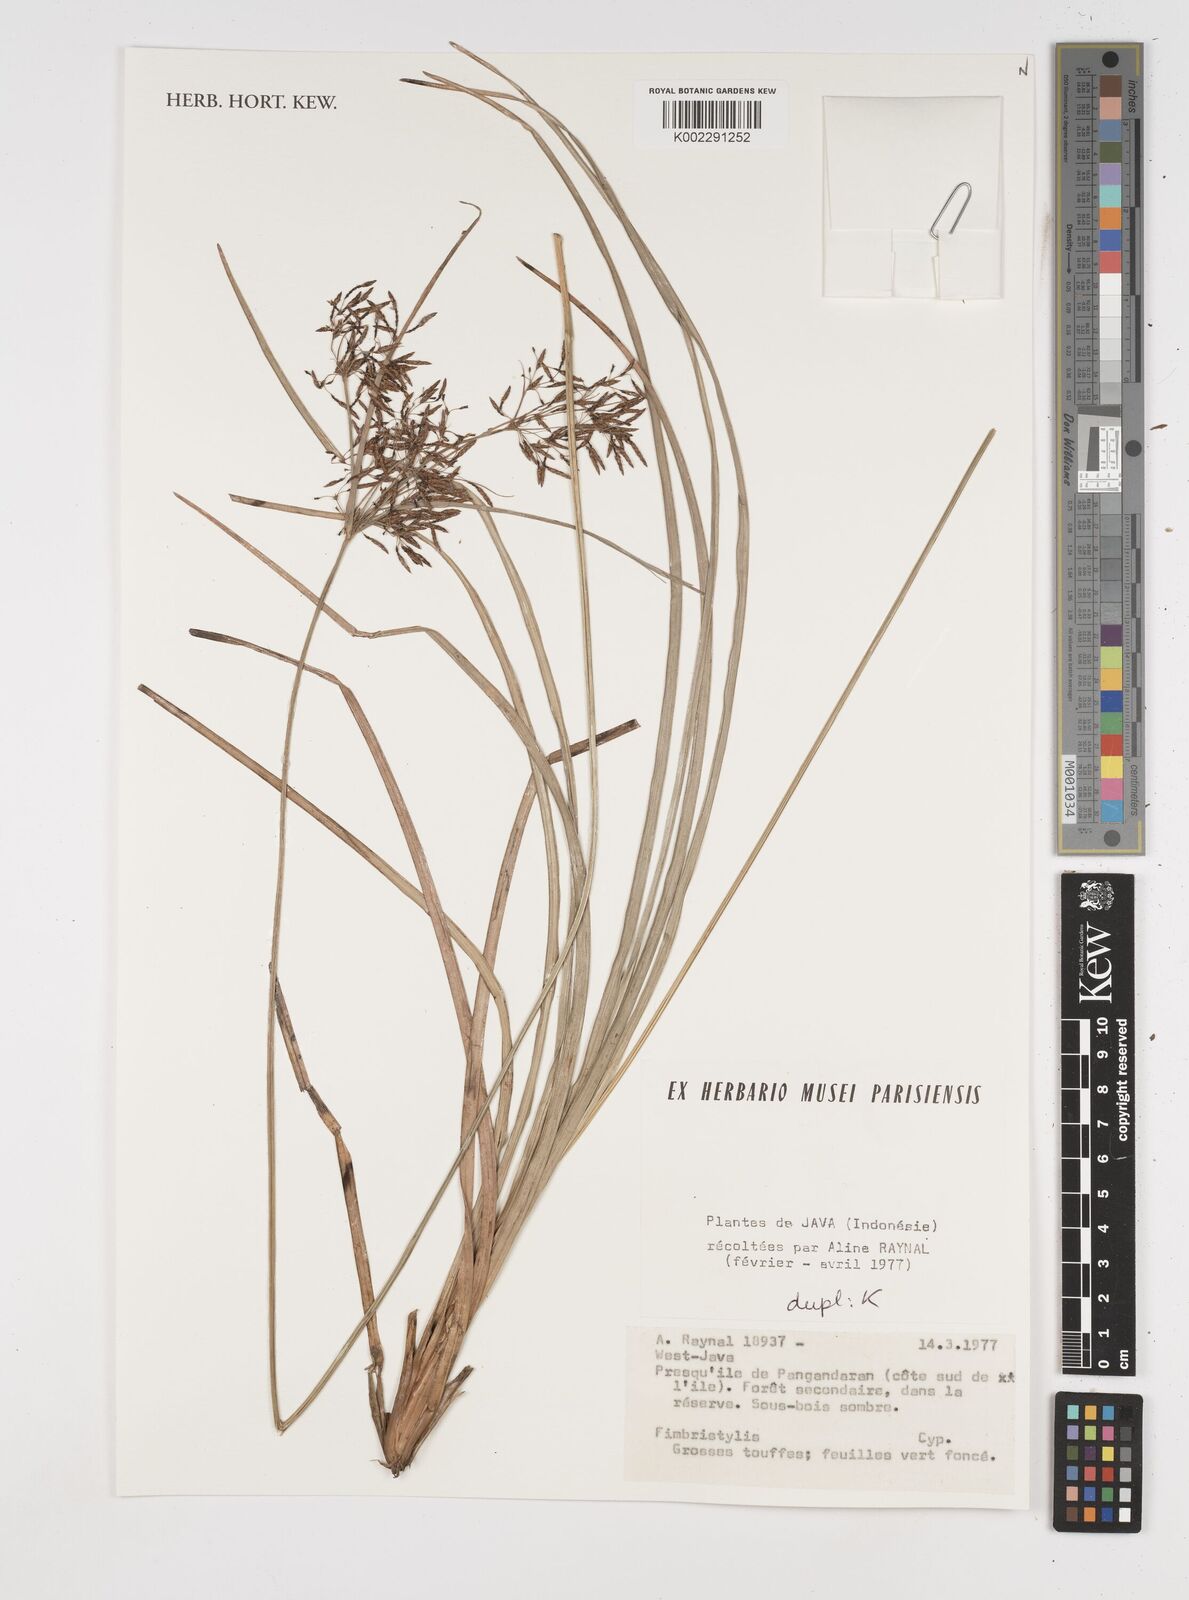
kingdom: Plantae
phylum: Tracheophyta
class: Liliopsida
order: Poales
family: Cyperaceae
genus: Fimbristylis
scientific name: Fimbristylis
